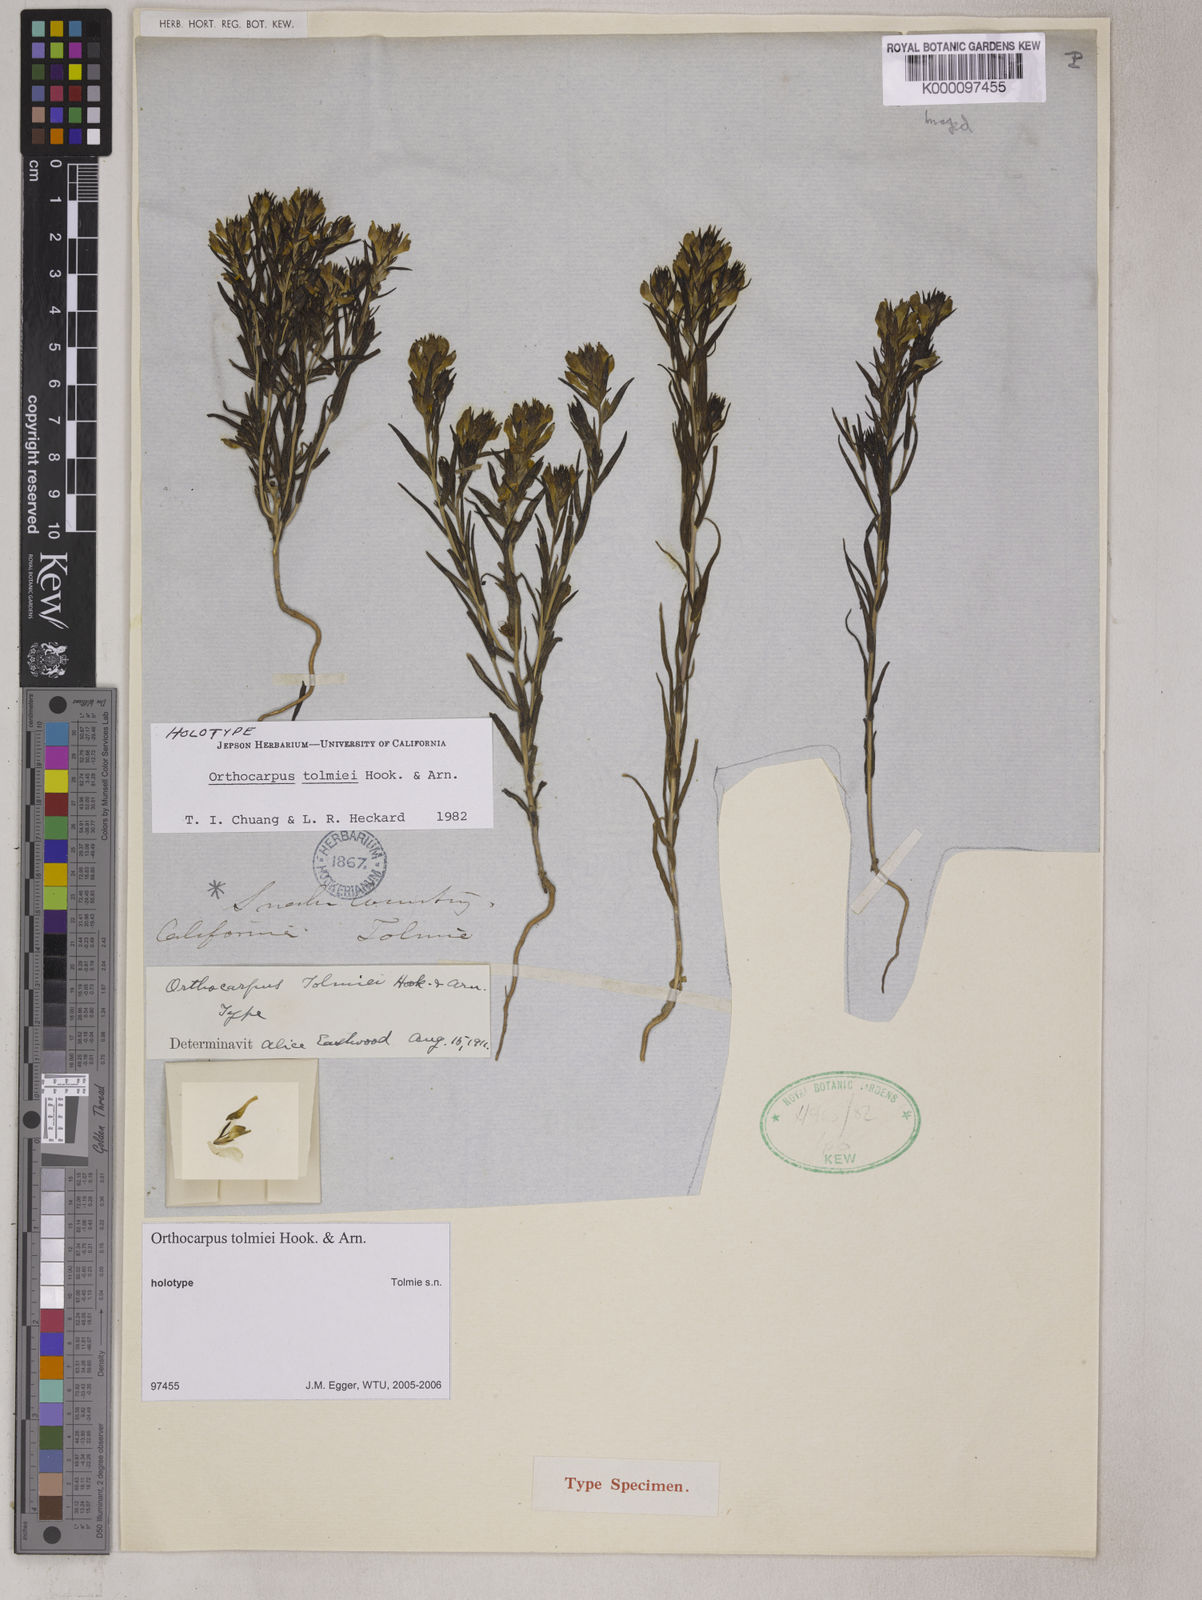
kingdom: Plantae
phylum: Tracheophyta
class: Magnoliopsida
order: Lamiales
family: Orobanchaceae
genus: Orthocarpus
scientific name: Orthocarpus tolmiei
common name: Tolmie's owl-clover
